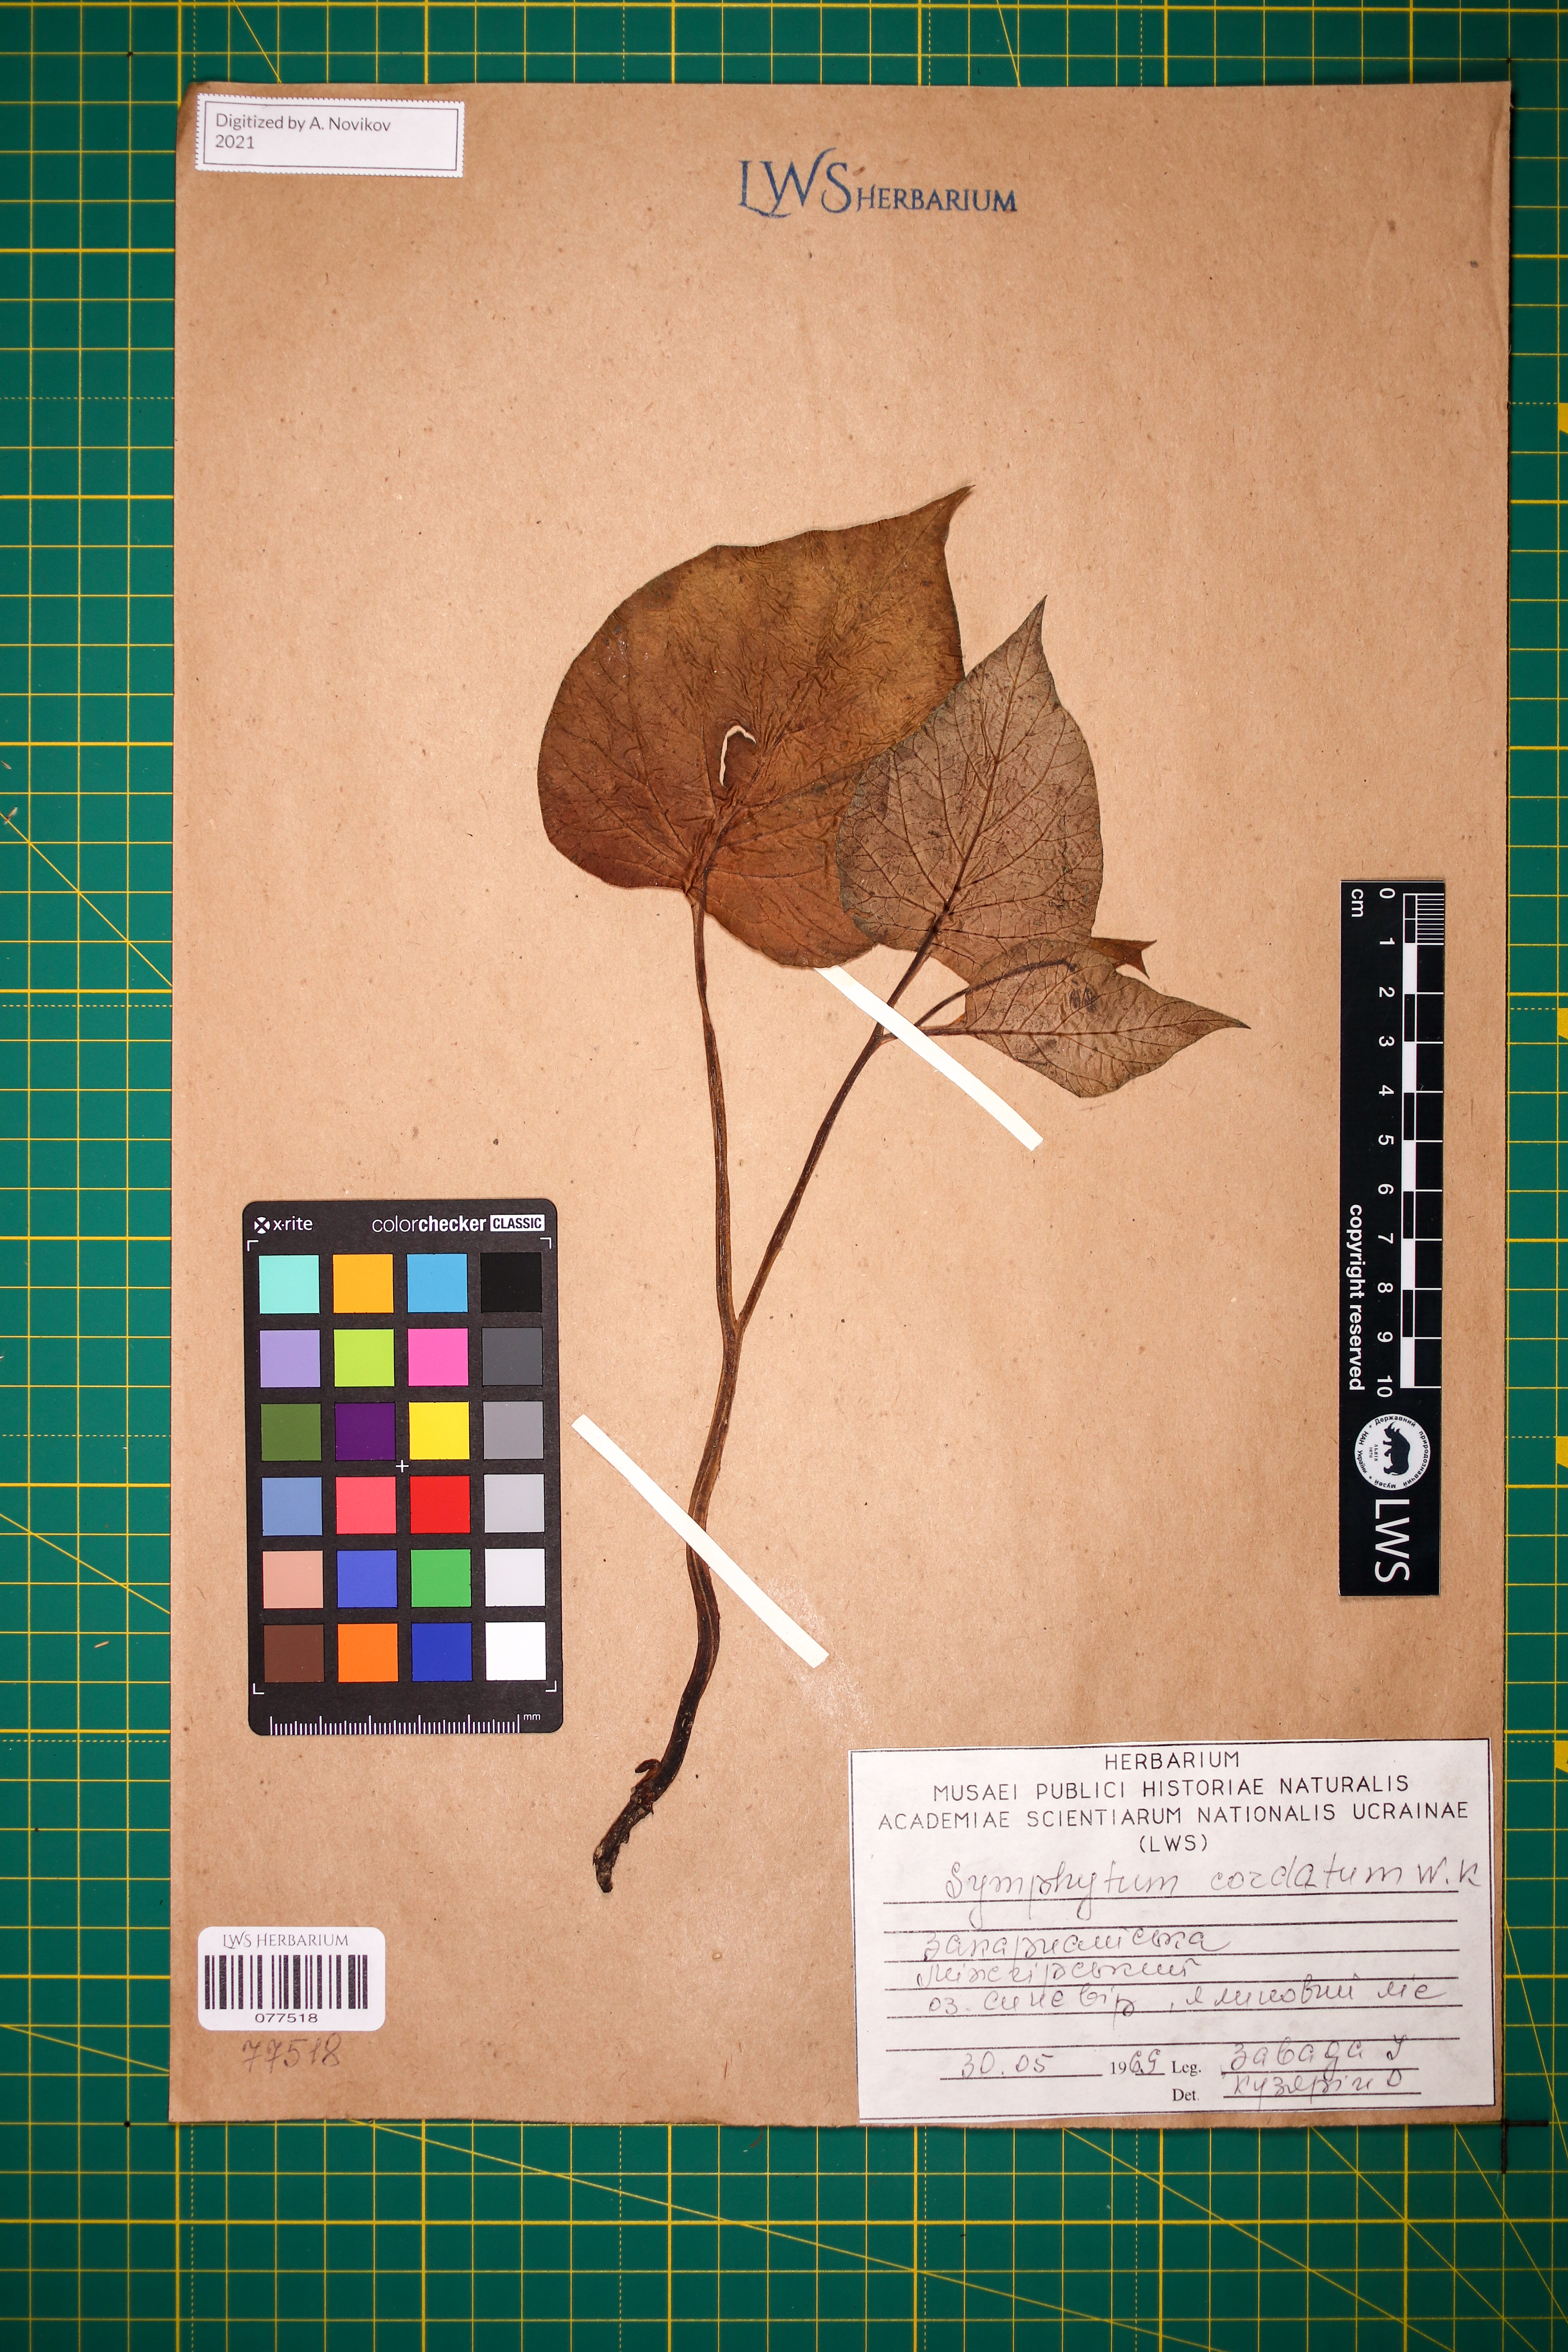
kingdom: Plantae
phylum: Tracheophyta
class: Magnoliopsida
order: Boraginales
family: Boraginaceae
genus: Symphytum
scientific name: Symphytum cordatum
